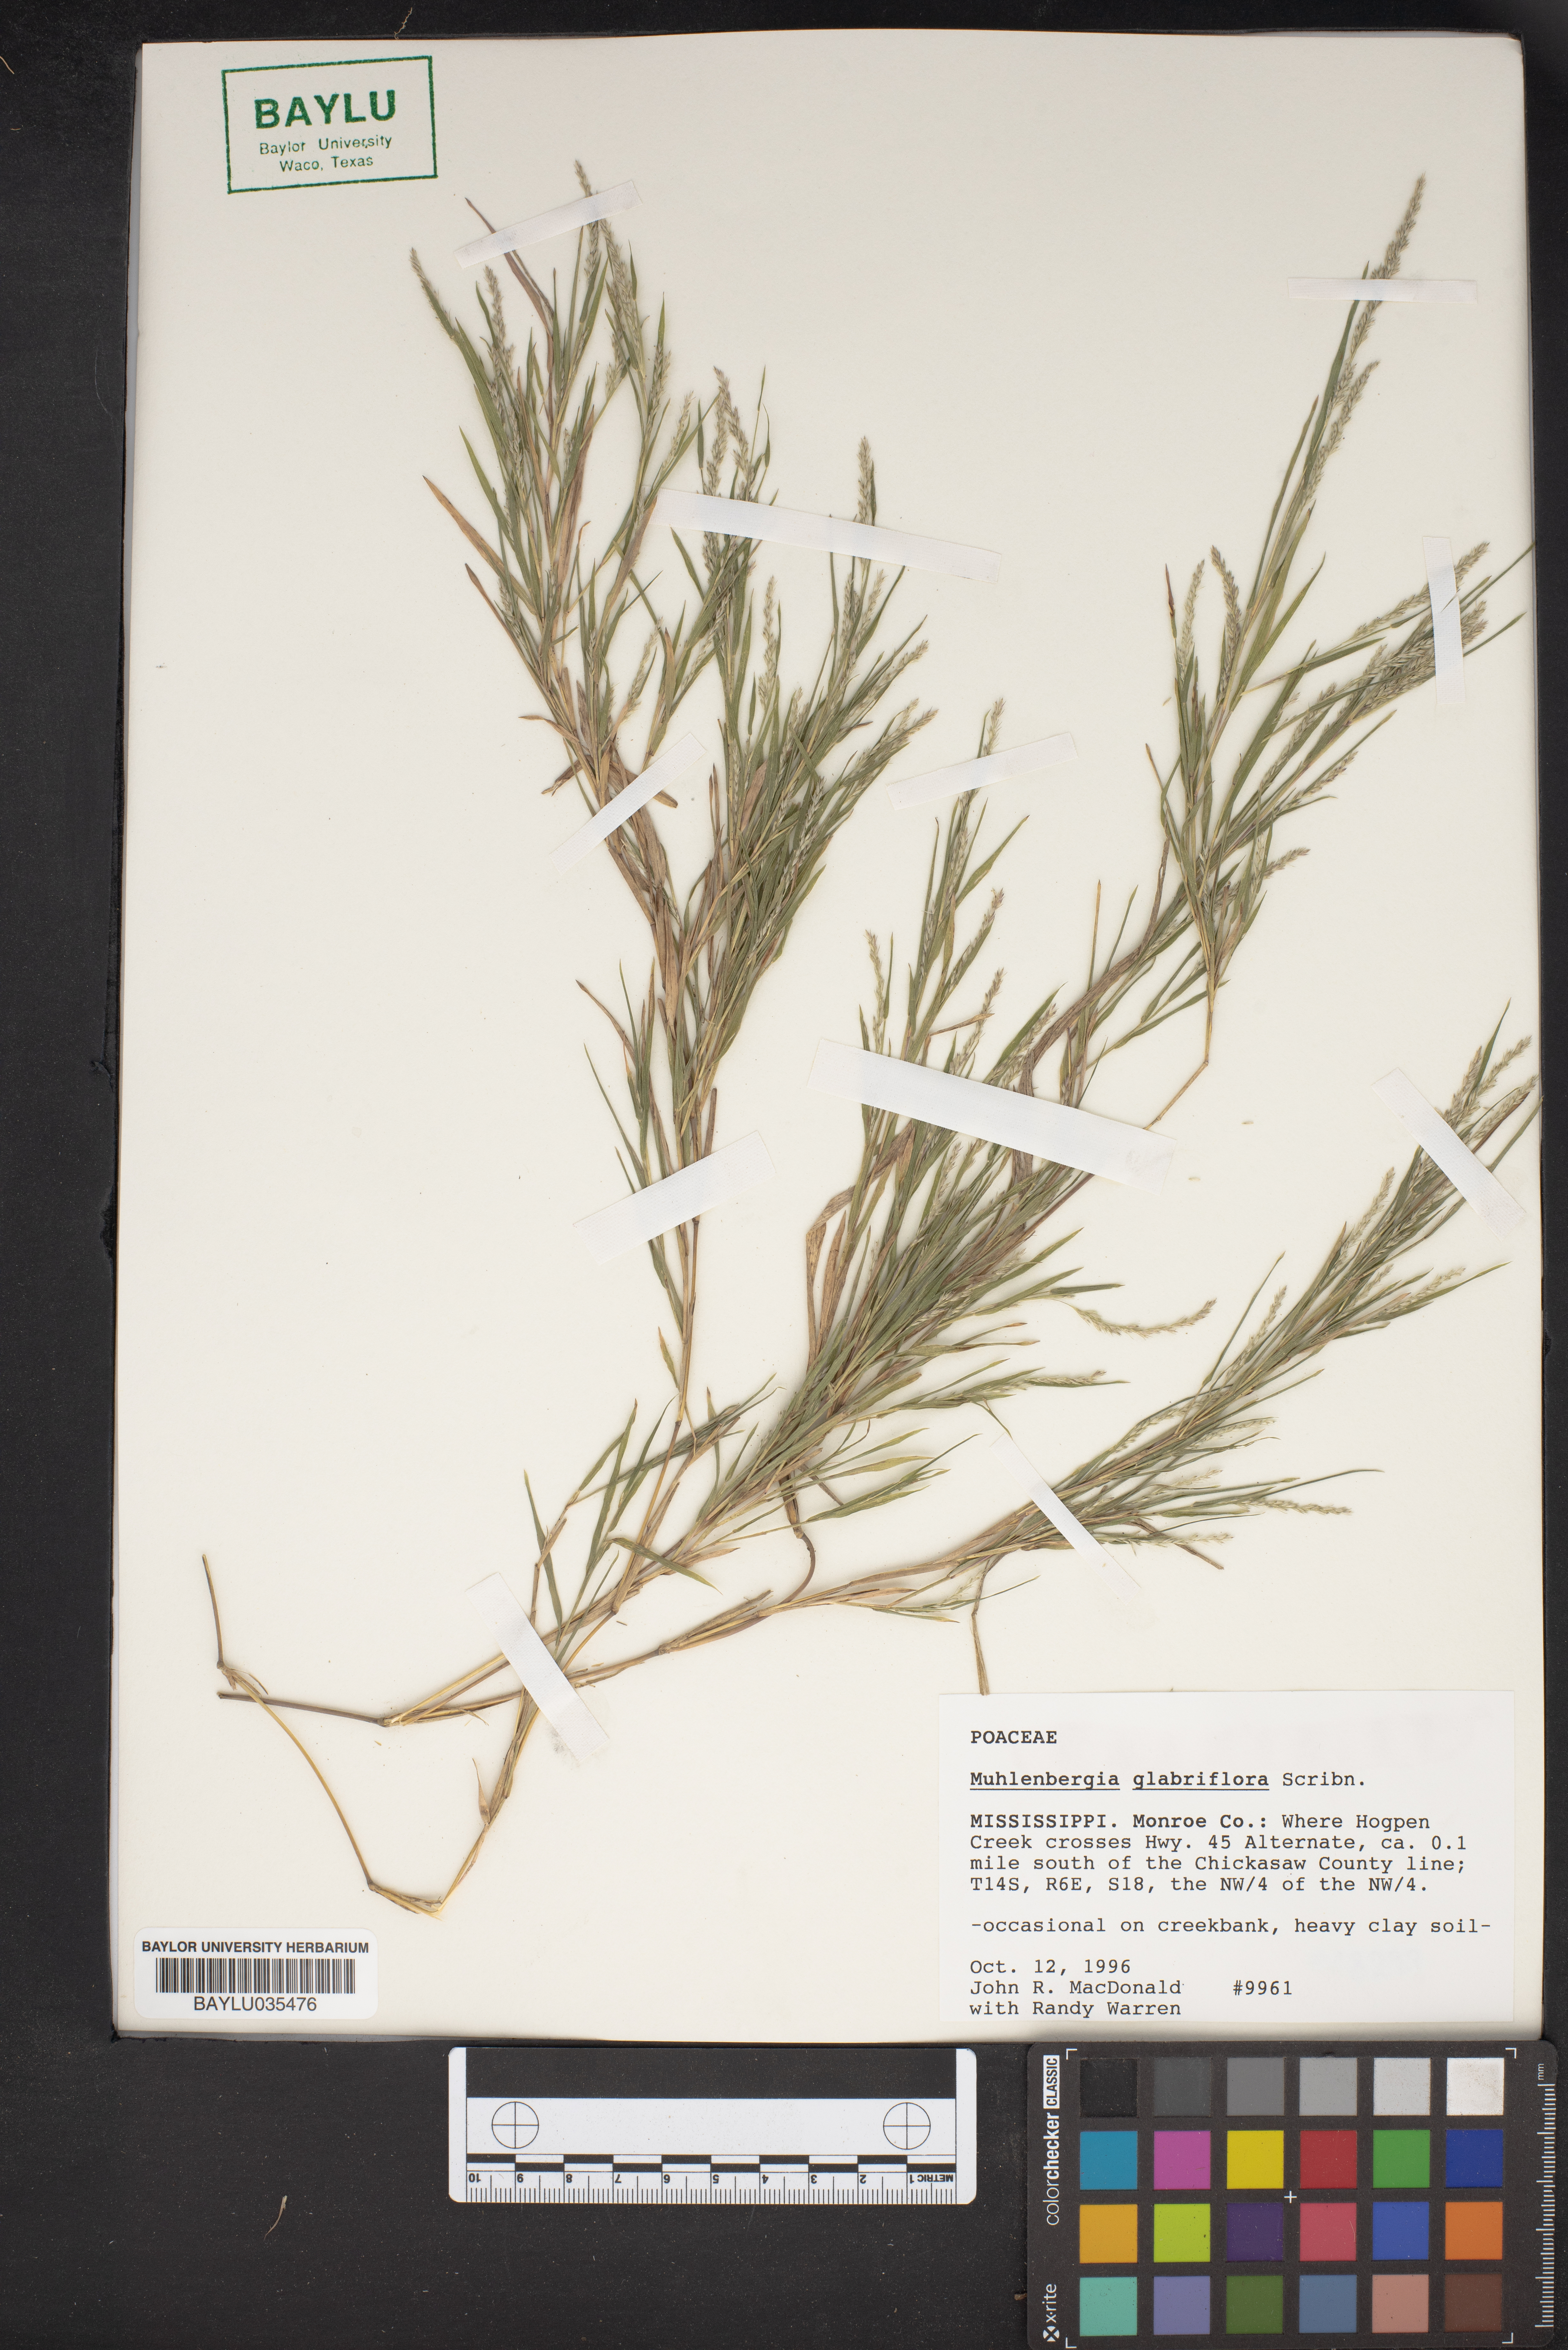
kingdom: Plantae
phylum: Tracheophyta
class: Liliopsida
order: Poales
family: Poaceae
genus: Muhlenbergia
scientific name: Muhlenbergia glabriflora
